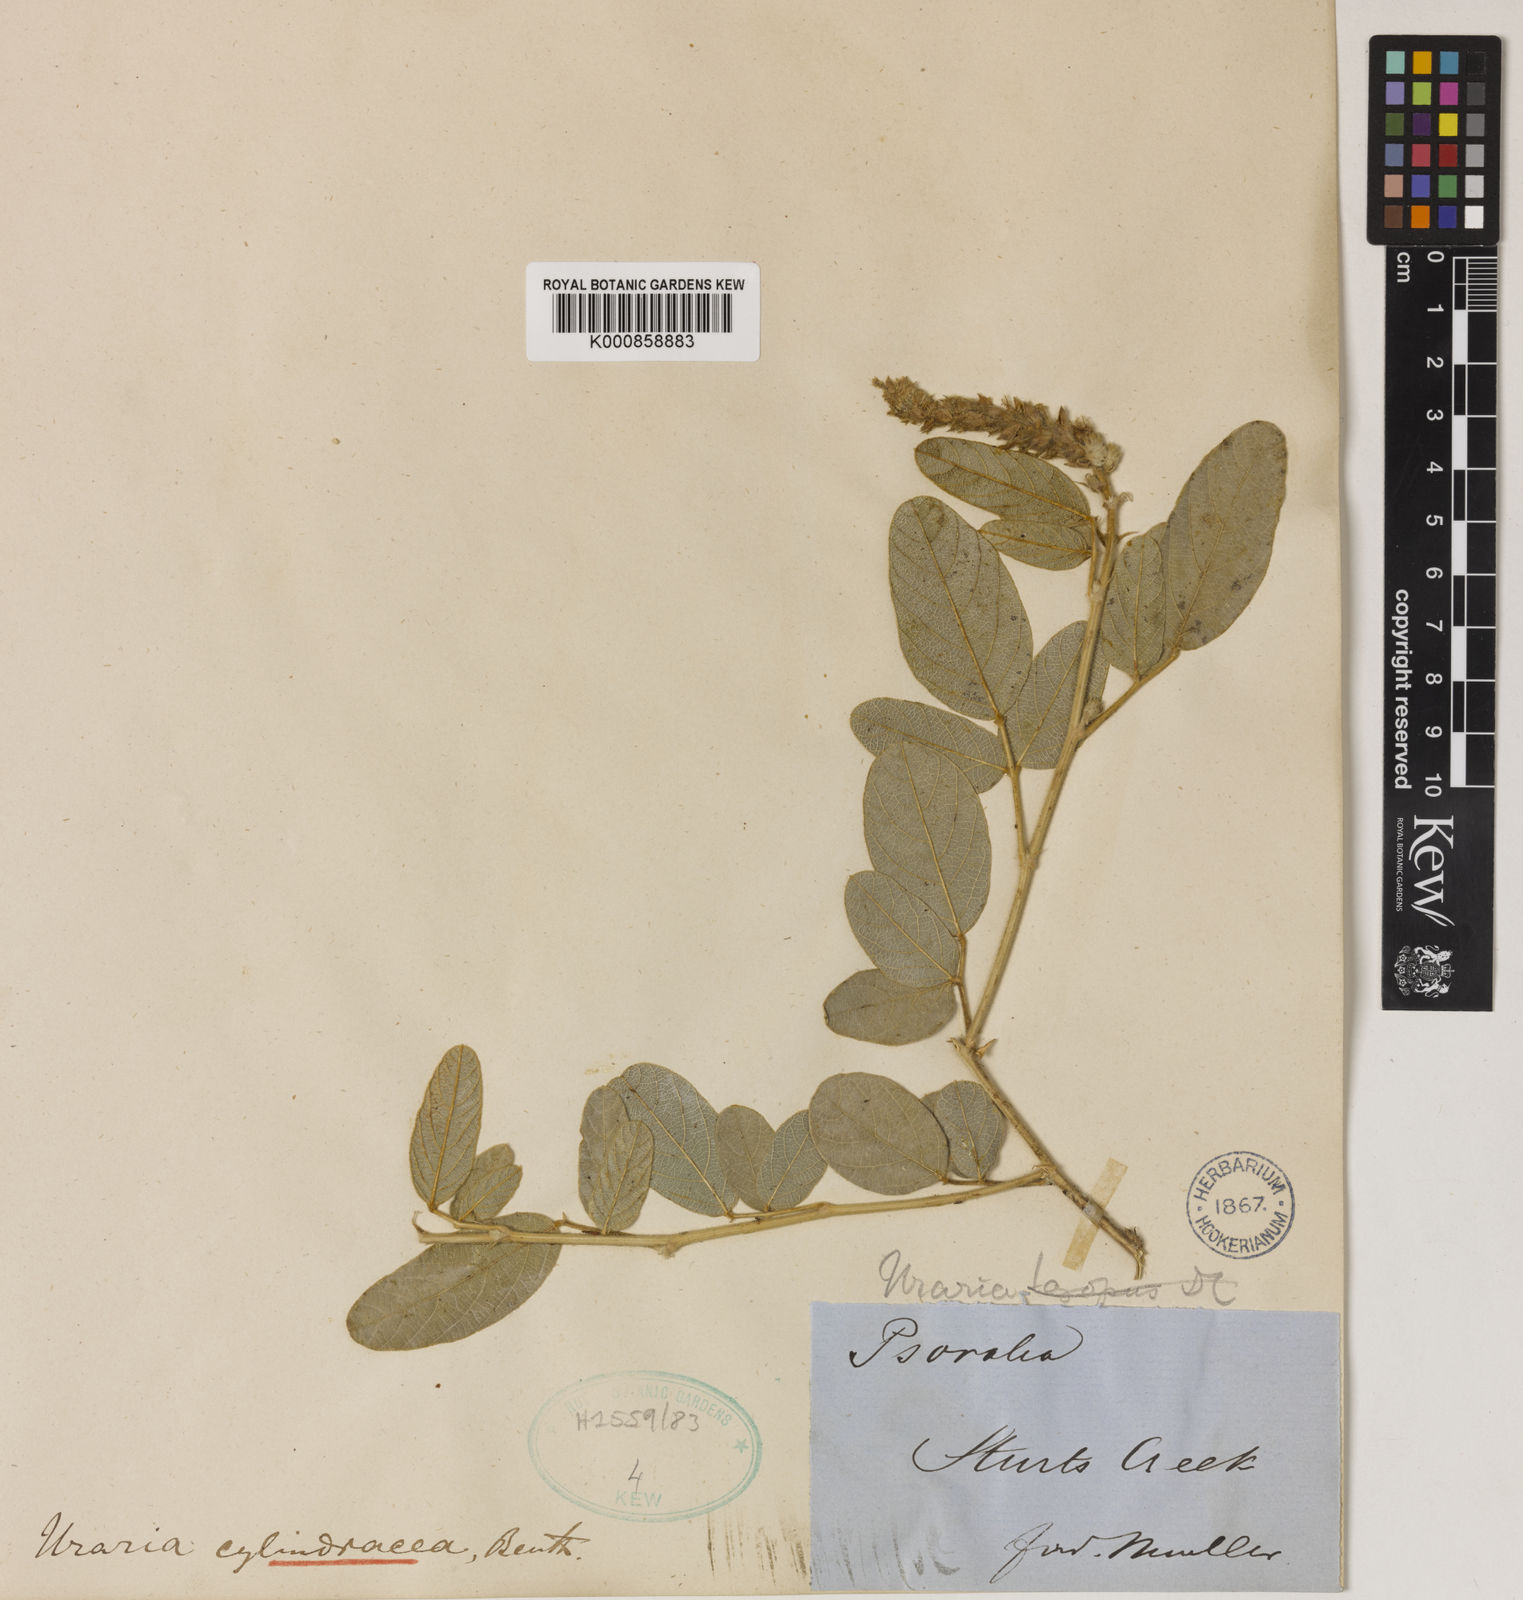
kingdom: Plantae
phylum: Tracheophyta
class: Magnoliopsida
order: Fabales
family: Fabaceae
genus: Uraria
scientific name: Uraria lagopodioides
